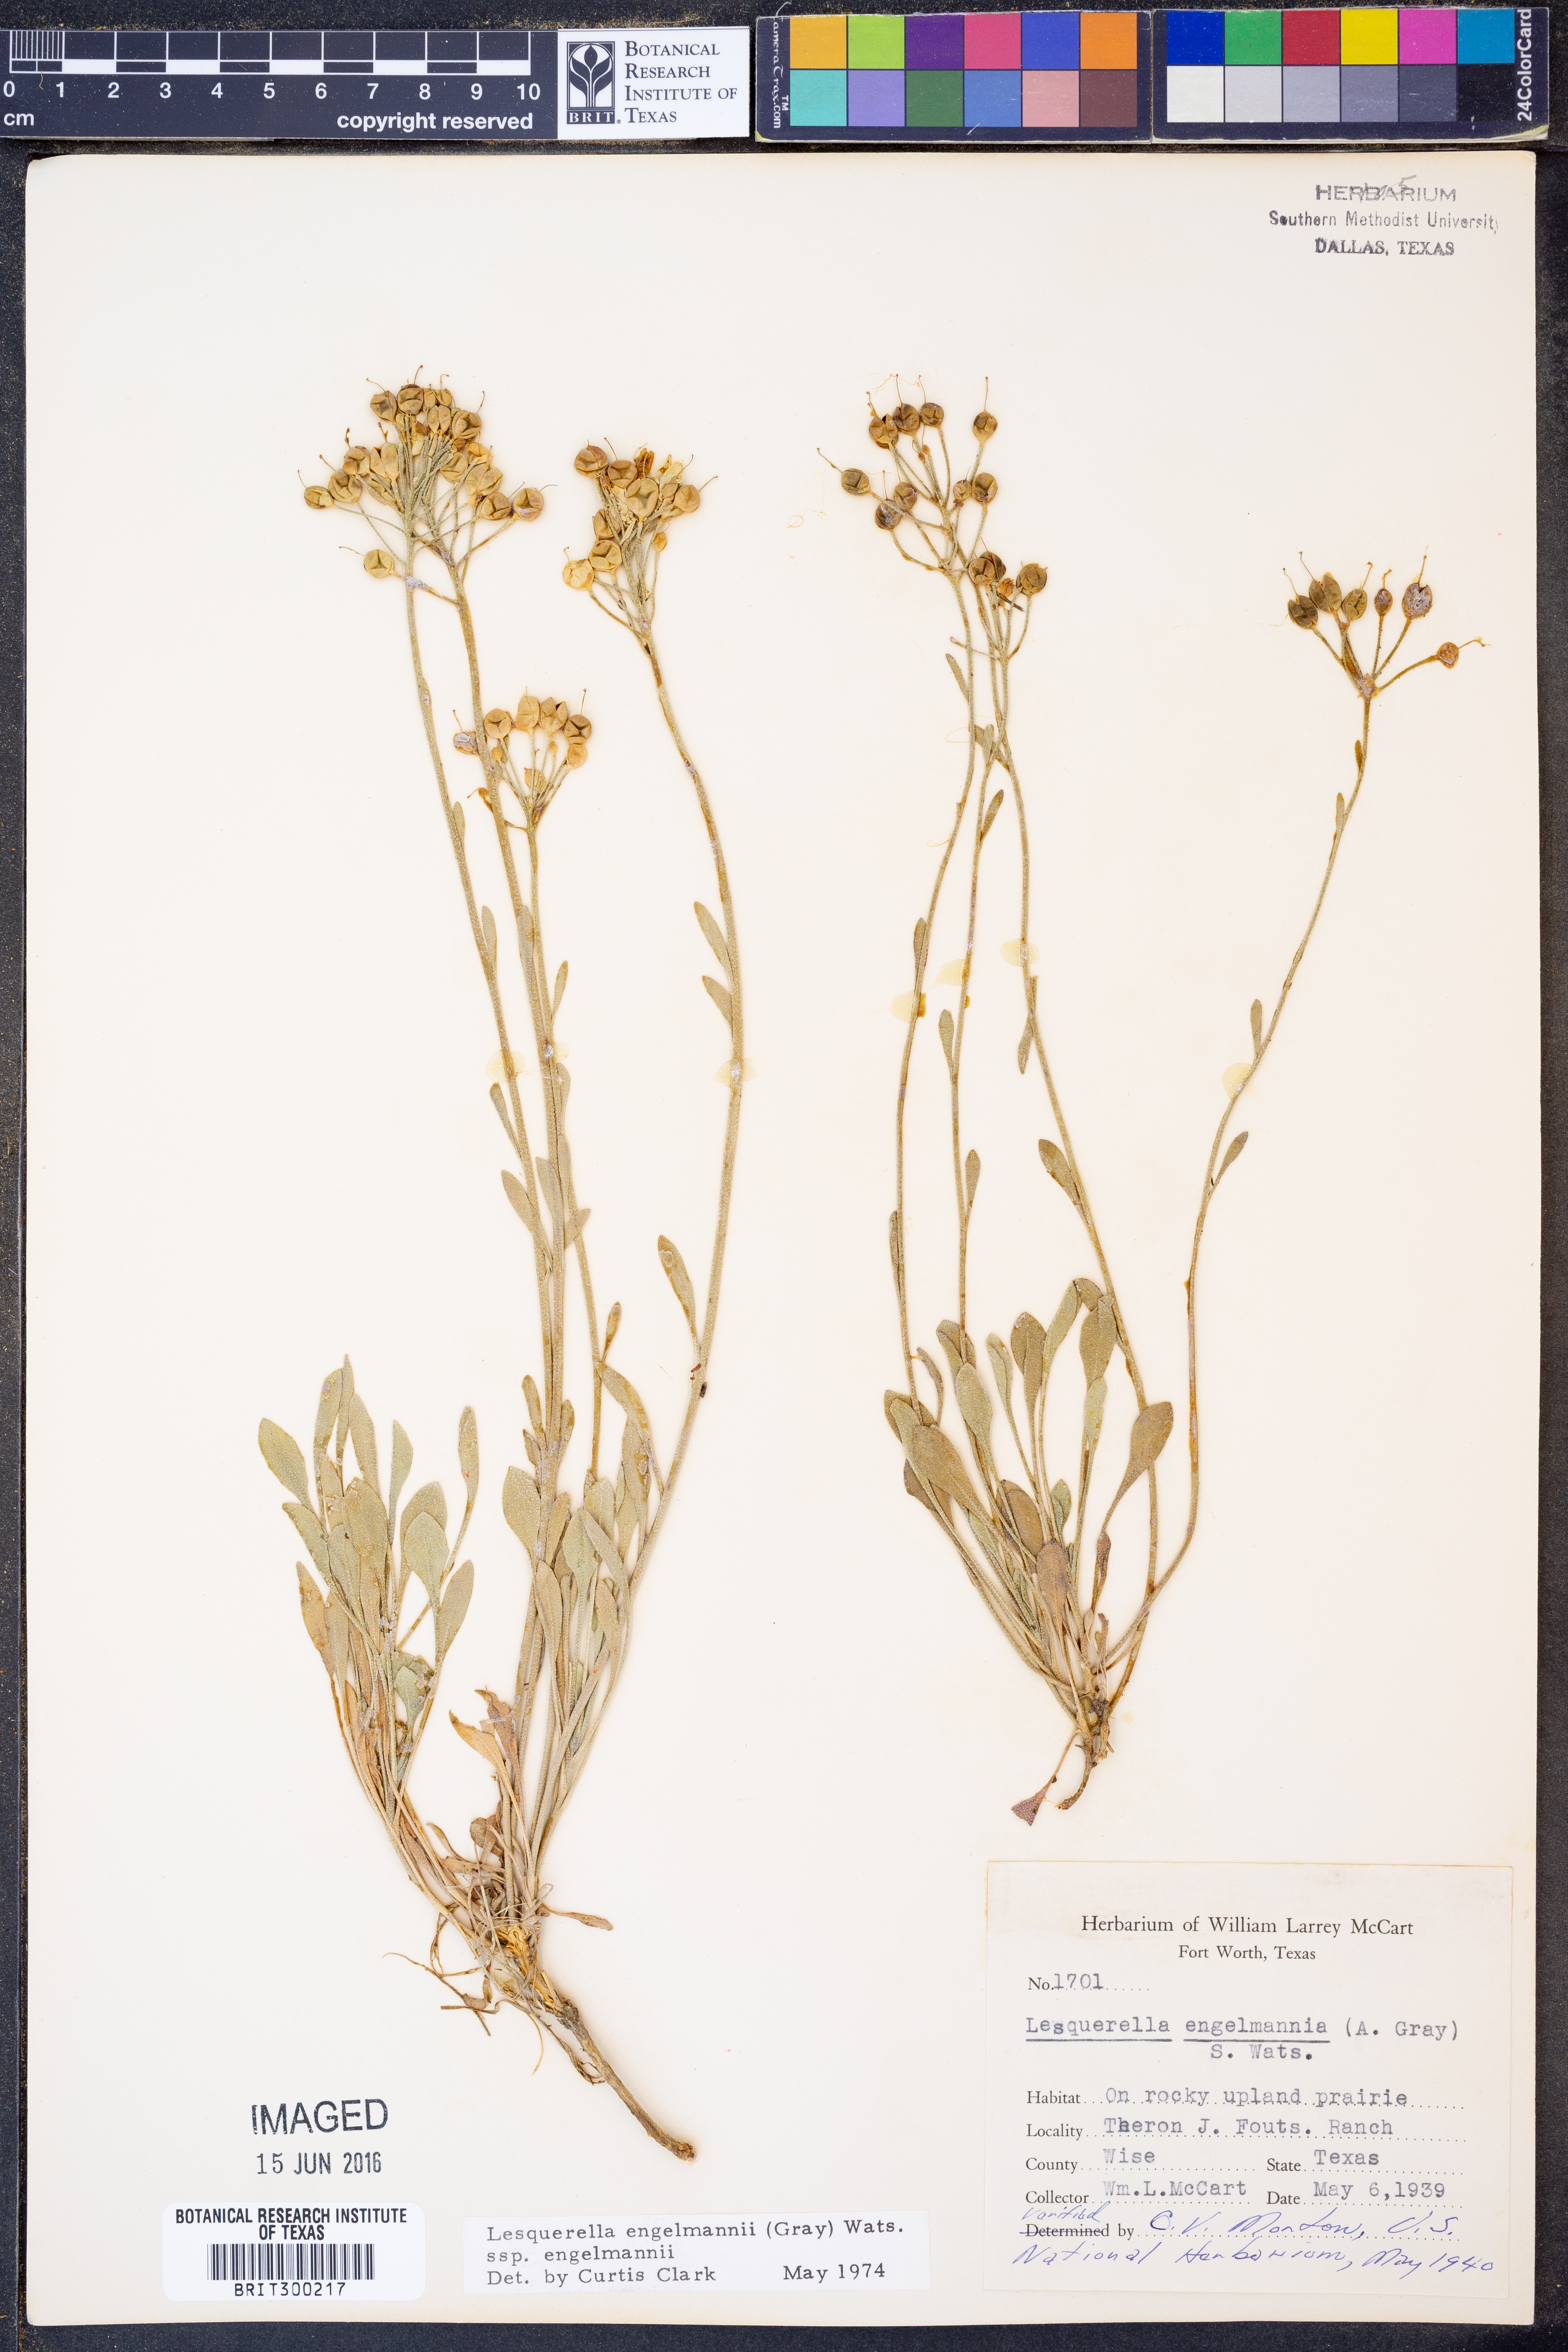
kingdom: Plantae
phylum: Tracheophyta
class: Magnoliopsida
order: Brassicales
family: Brassicaceae
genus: Physaria
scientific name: Physaria engelmannii
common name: Engelmann's bladderpod
